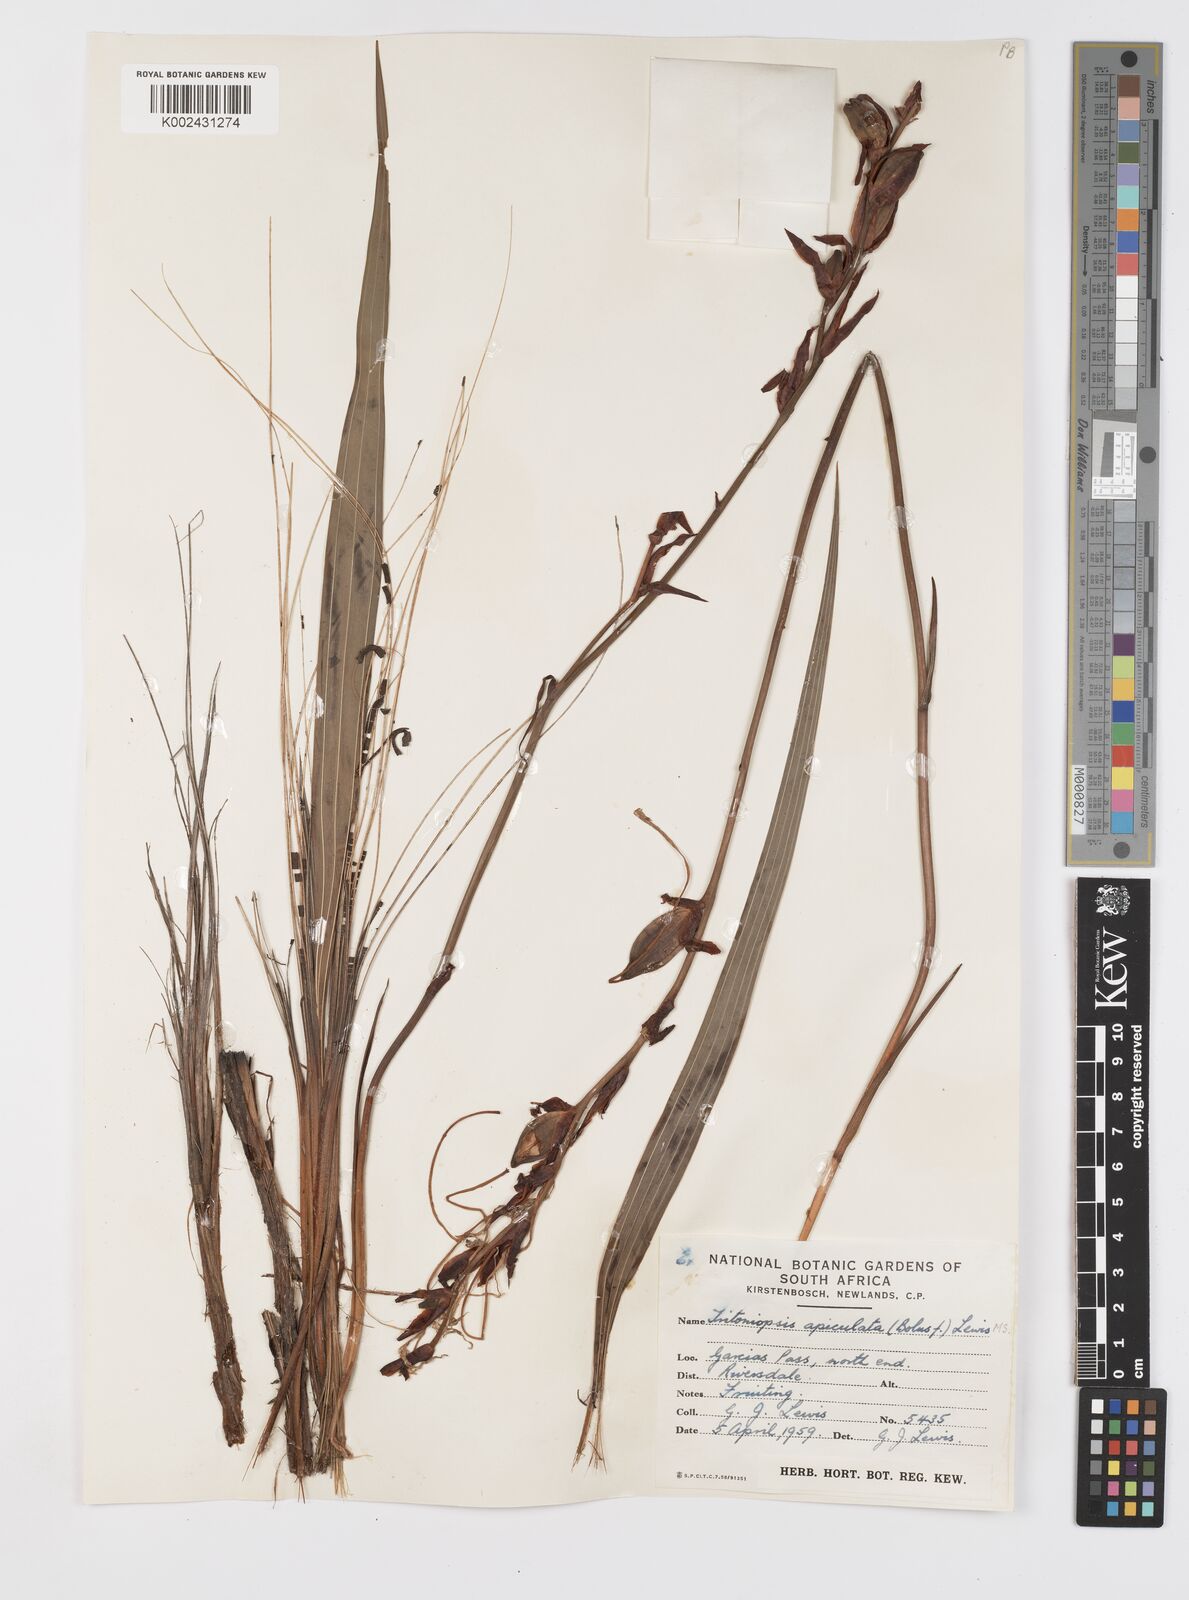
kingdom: Plantae
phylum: Tracheophyta
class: Liliopsida
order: Asparagales
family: Iridaceae
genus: Tritoniopsis
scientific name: Tritoniopsis revoluta
